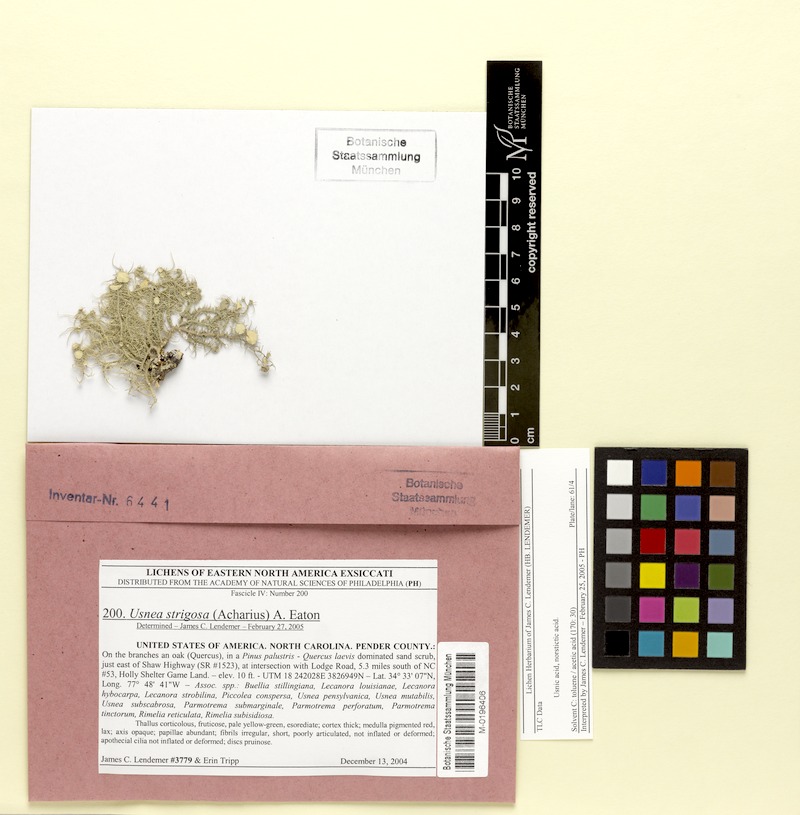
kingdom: Fungi
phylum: Ascomycota
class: Lecanoromycetes
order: Lecanorales
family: Parmeliaceae
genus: Usnea
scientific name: Usnea strigosa
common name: Bushy beard lichen
